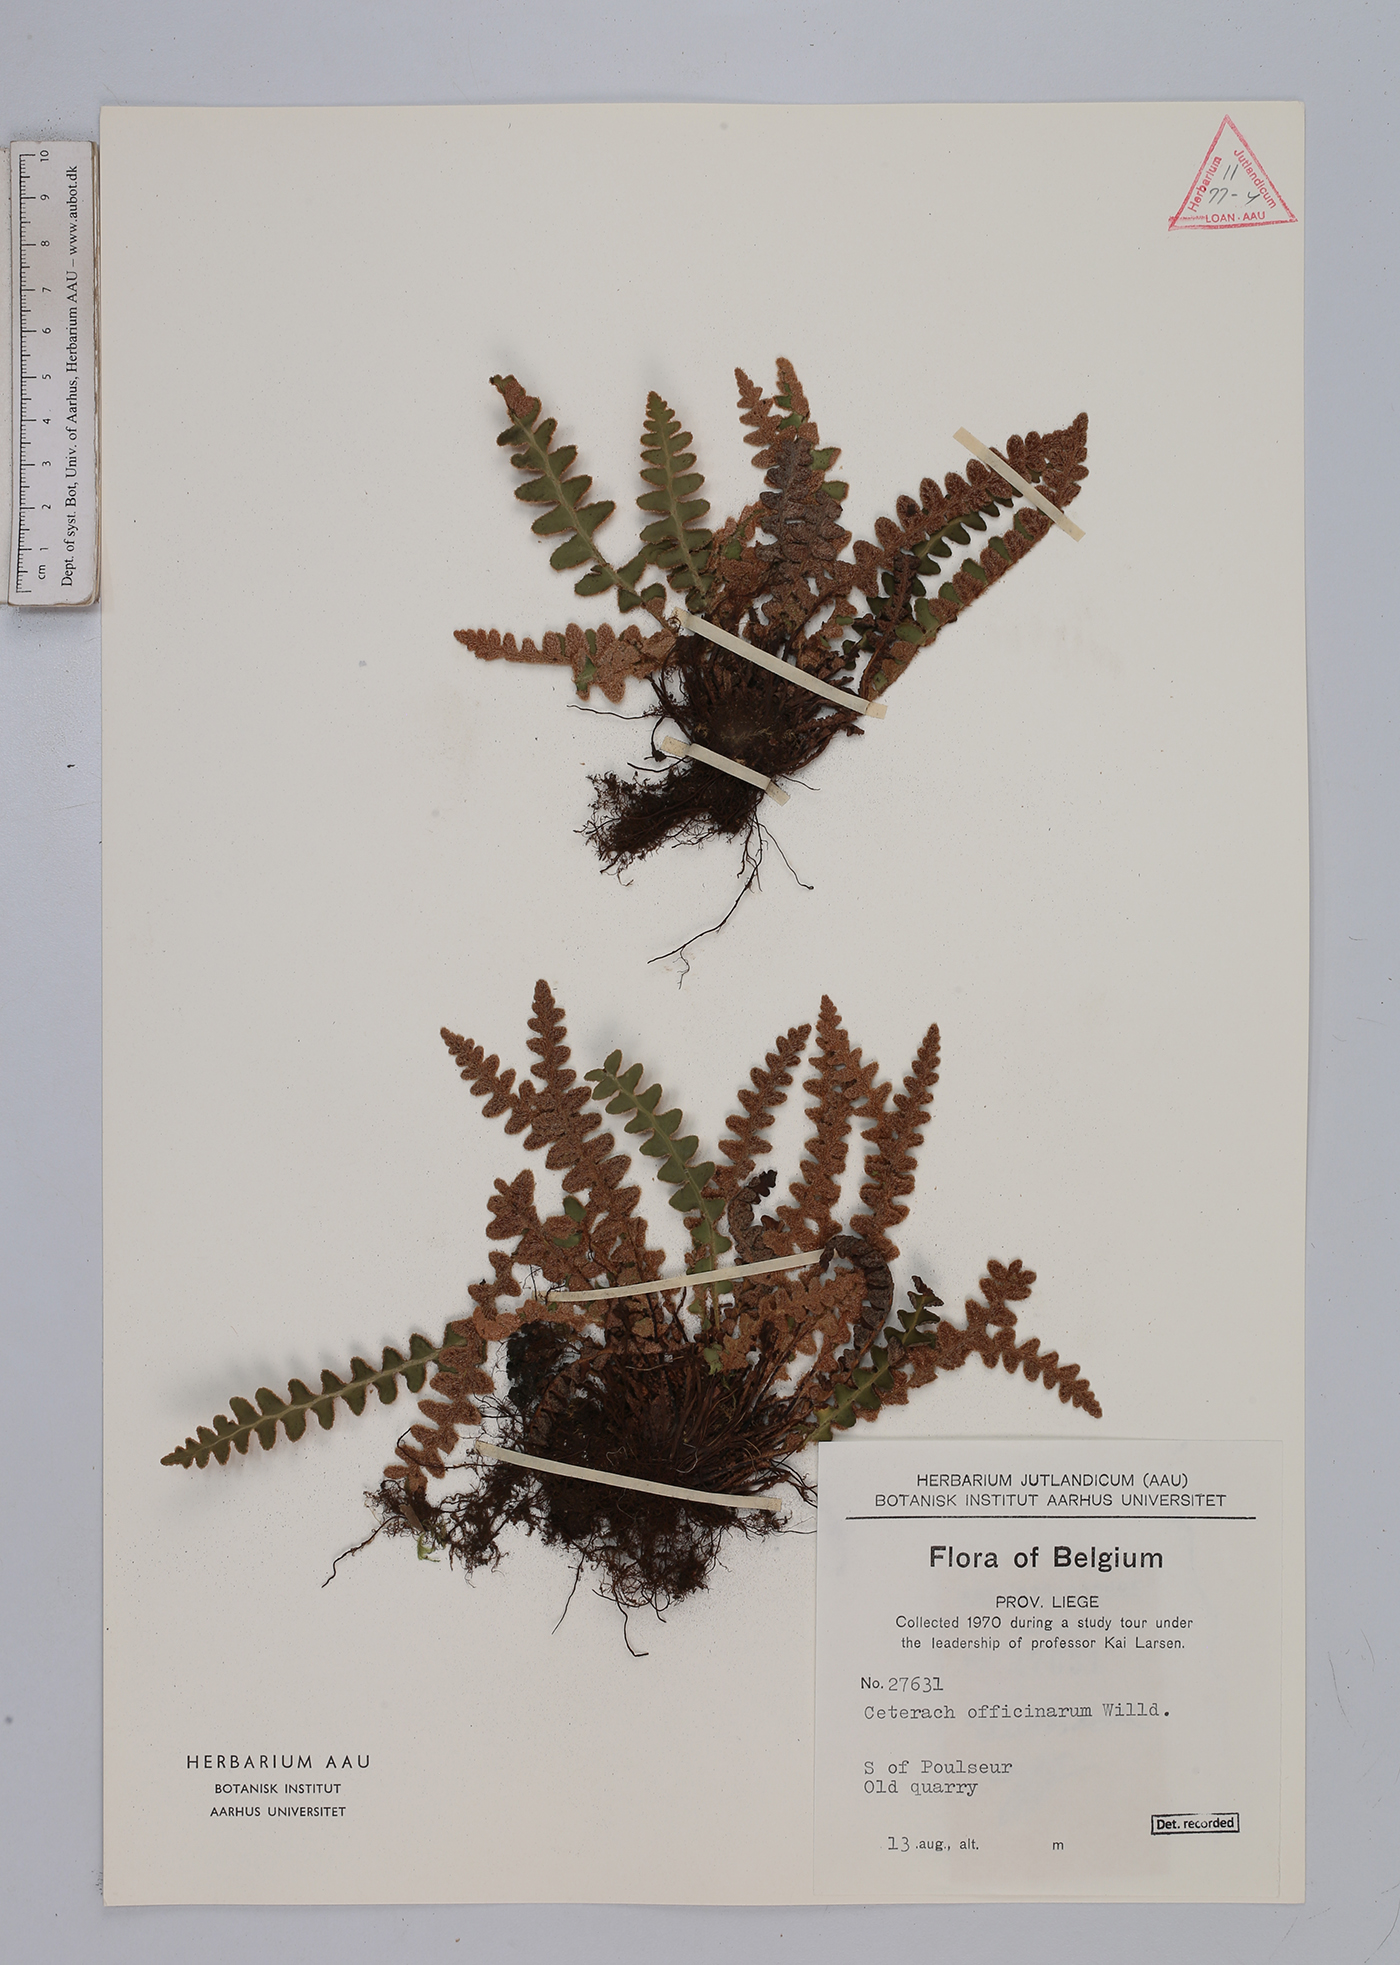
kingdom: Plantae
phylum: Tracheophyta
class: Polypodiopsida
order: Polypodiales
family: Aspleniaceae
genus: Asplenium
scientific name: Asplenium ceterach
